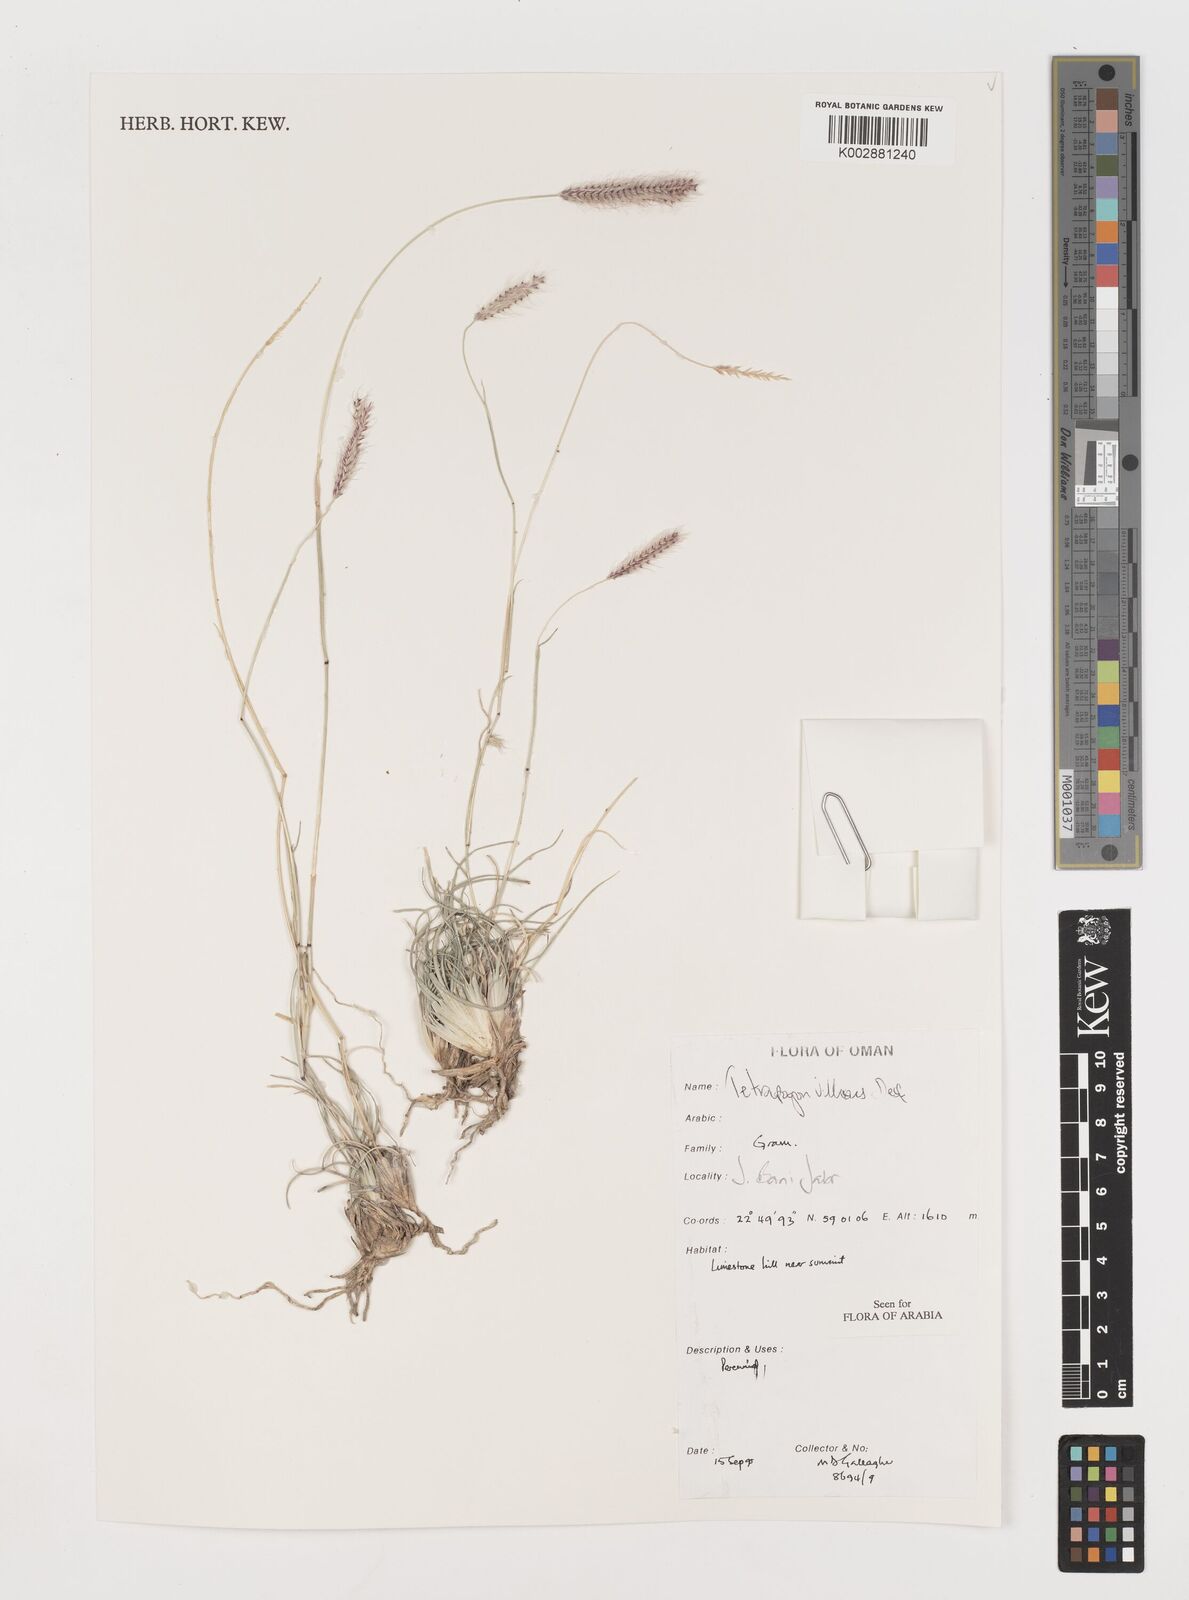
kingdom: Plantae
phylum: Tracheophyta
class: Liliopsida
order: Poales
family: Poaceae
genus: Tetrapogon
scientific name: Tetrapogon villosus
